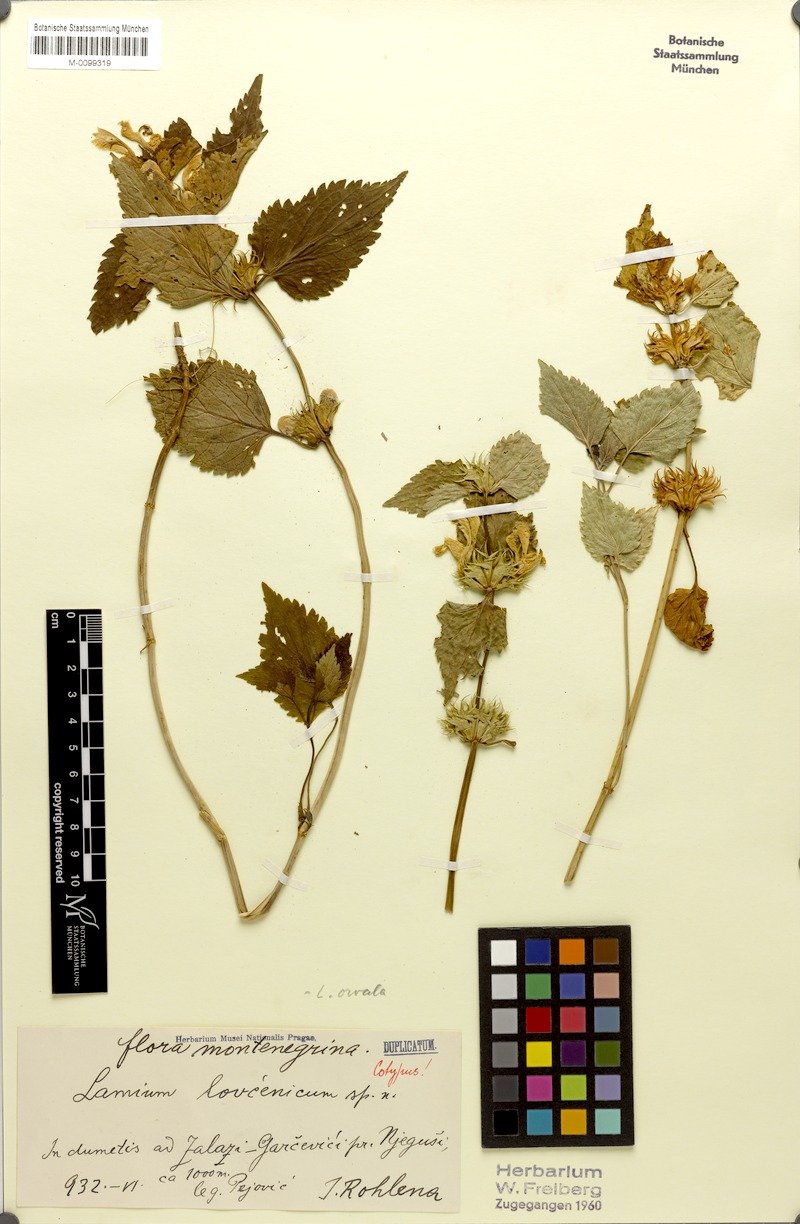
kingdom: Plantae
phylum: Tracheophyta
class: Magnoliopsida
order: Lamiales
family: Lamiaceae
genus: Lamium
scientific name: Lamium garganicum
